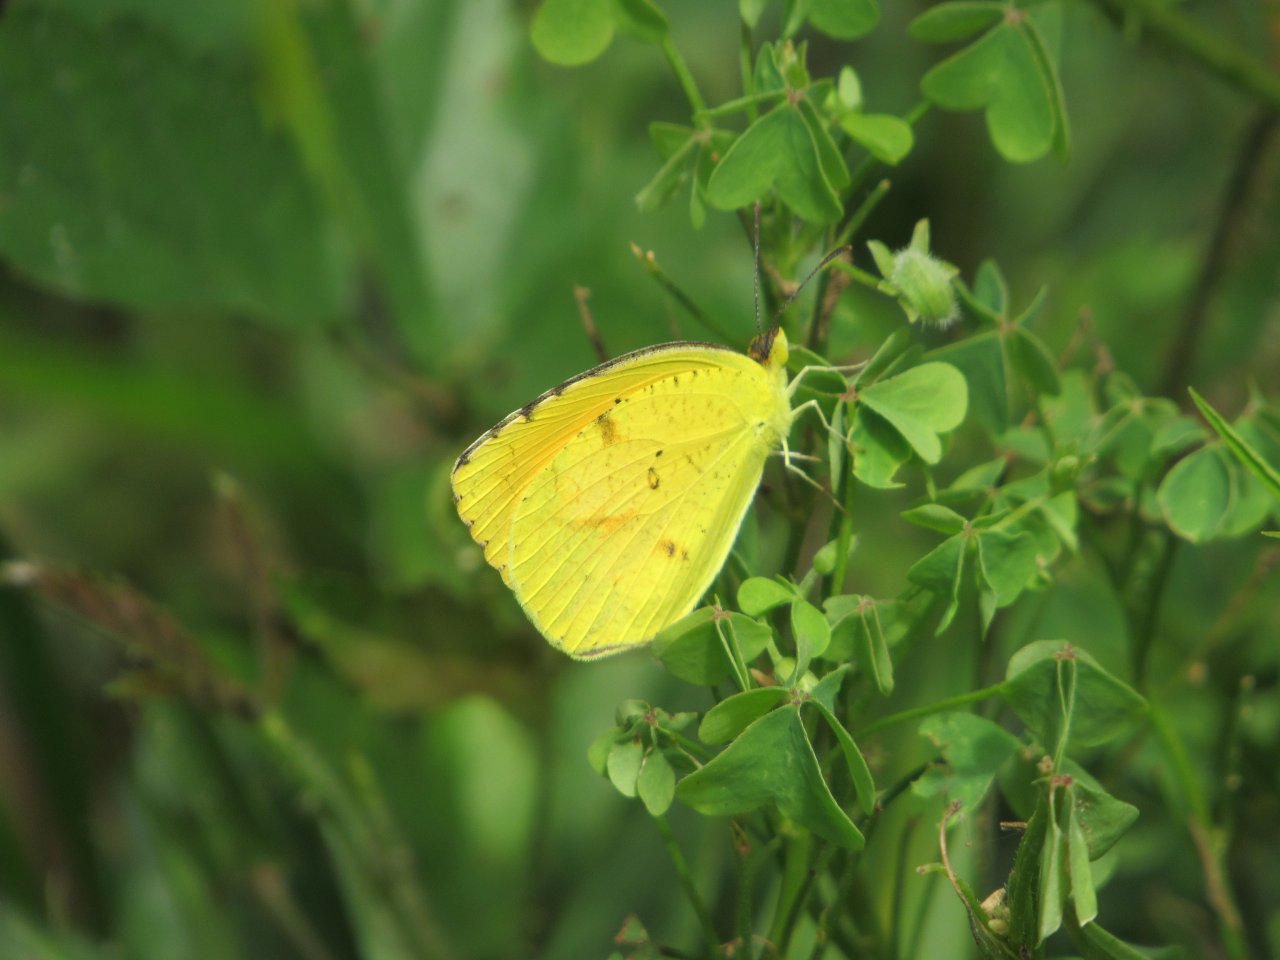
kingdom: Animalia
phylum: Arthropoda
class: Insecta
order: Lepidoptera
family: Pieridae
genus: Abaeis
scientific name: Abaeis nicippe
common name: Sleepy Orange
